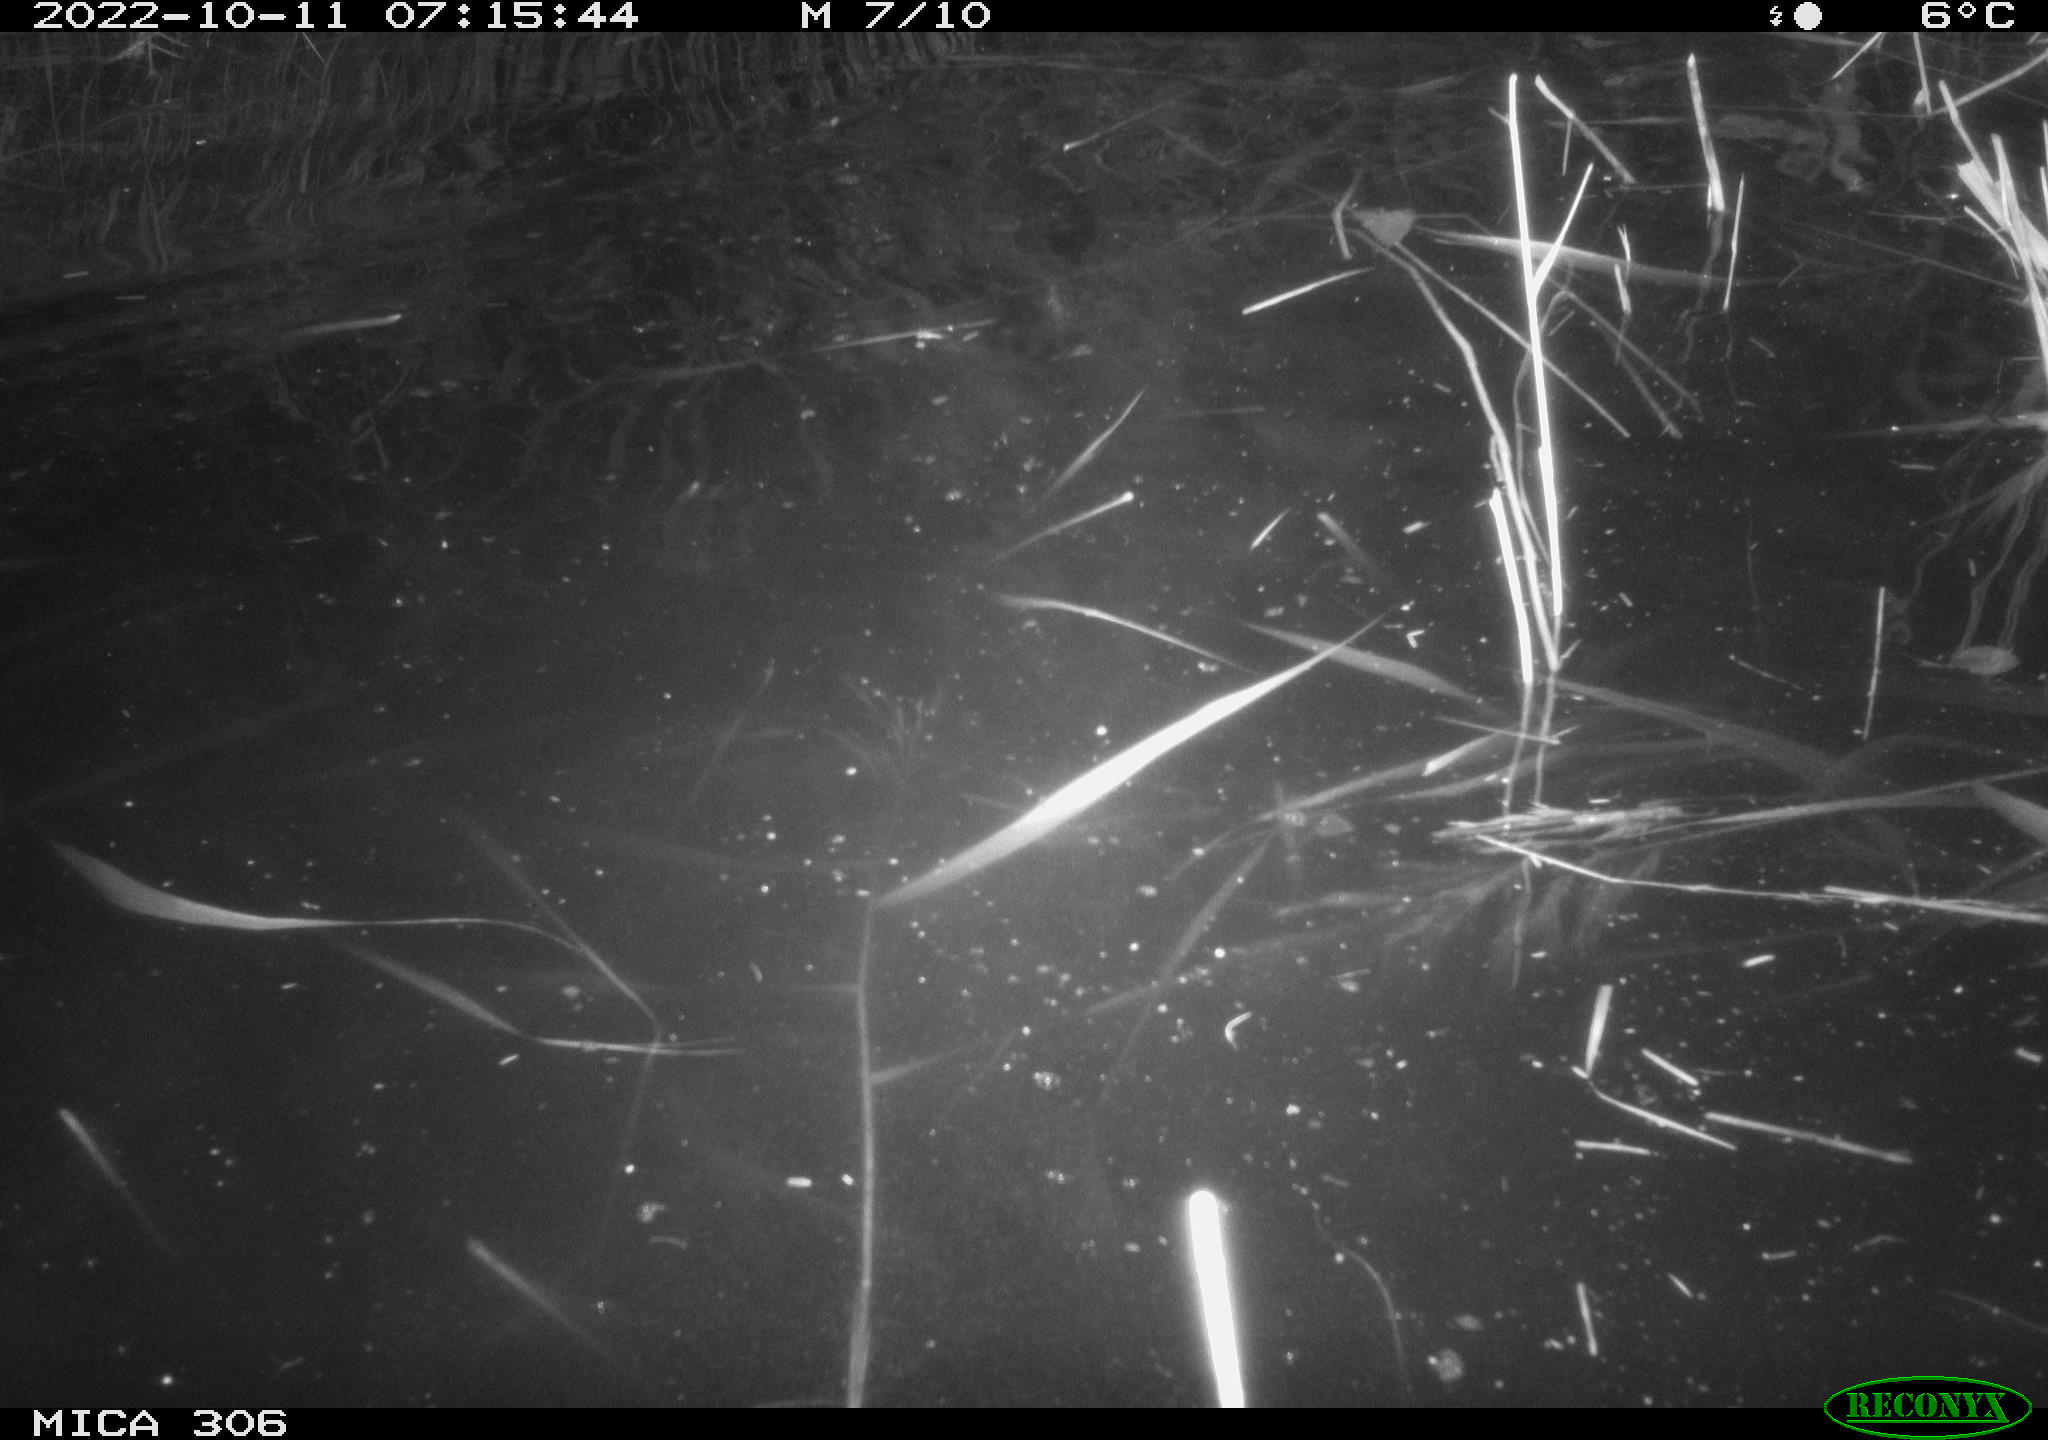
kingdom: Animalia
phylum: Chordata
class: Mammalia
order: Rodentia
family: Muridae
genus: Rattus
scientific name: Rattus norvegicus
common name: Brown rat
